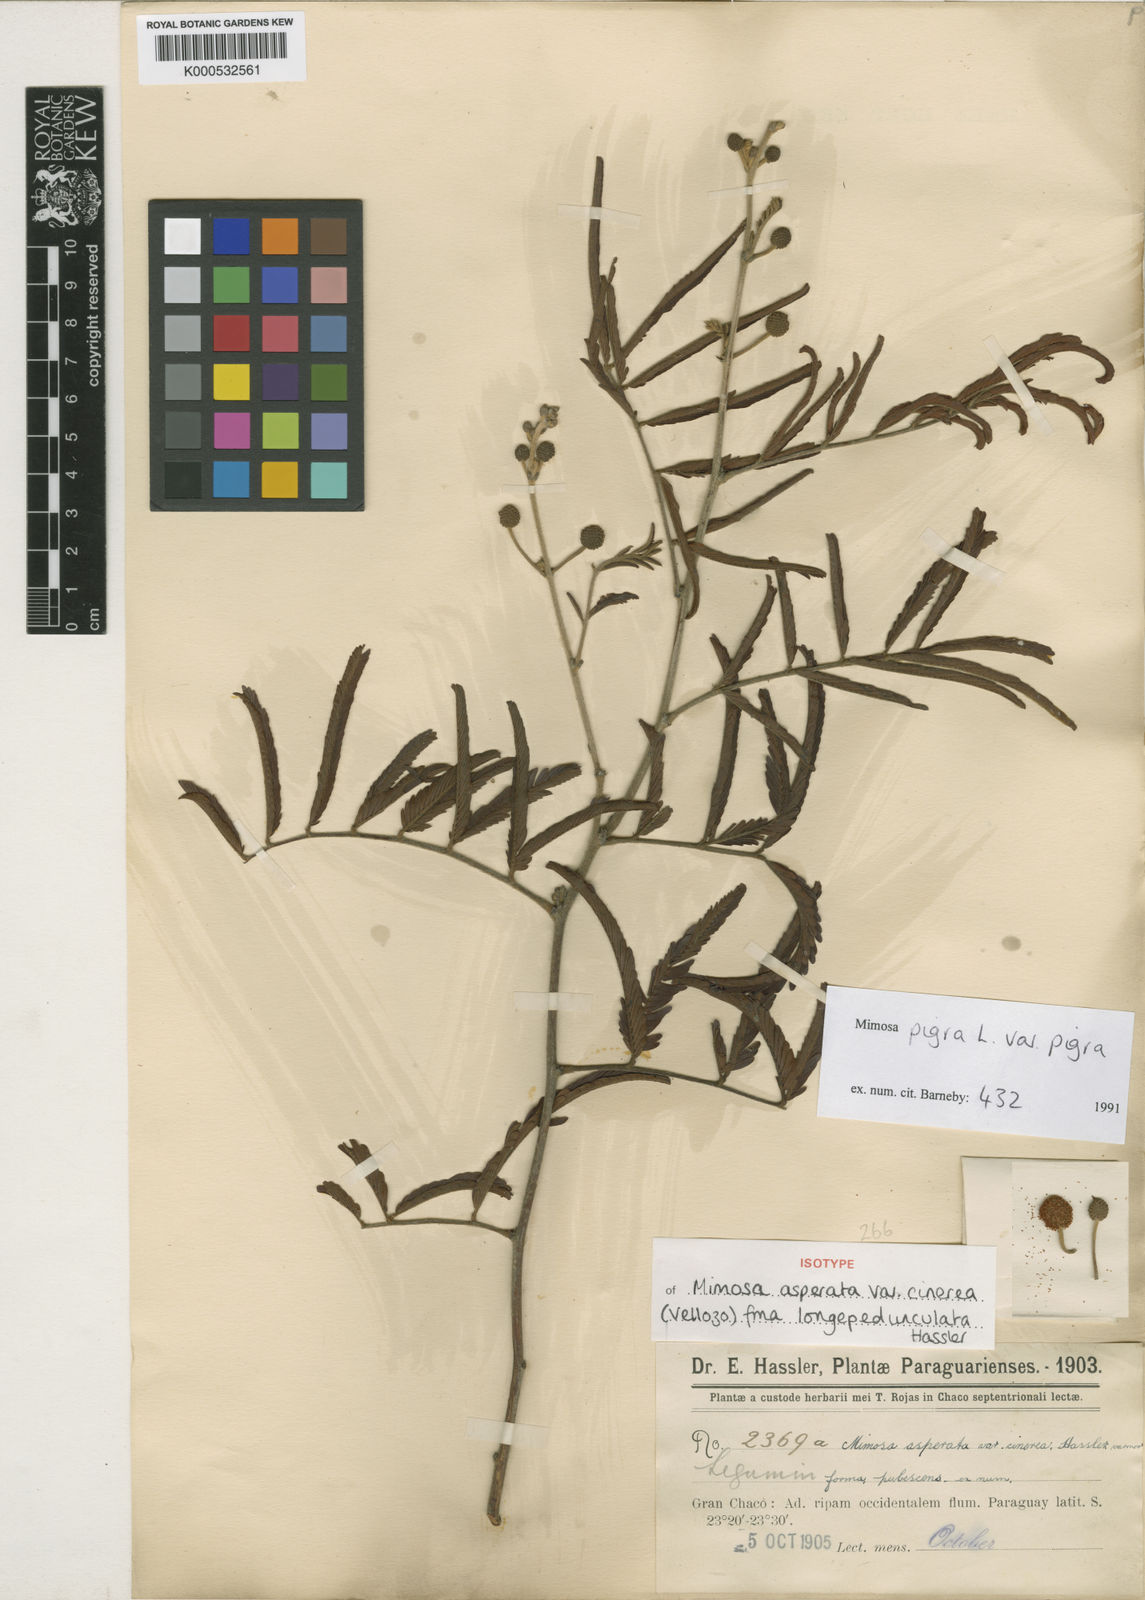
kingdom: Plantae
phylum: Tracheophyta
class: Magnoliopsida
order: Fabales
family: Fabaceae
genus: Mimosa
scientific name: Mimosa pigra
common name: Black mimosa
